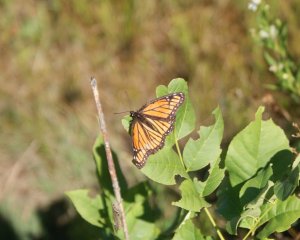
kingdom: Animalia
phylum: Arthropoda
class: Insecta
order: Lepidoptera
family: Nymphalidae
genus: Limenitis
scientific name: Limenitis archippus
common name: Viceroy
